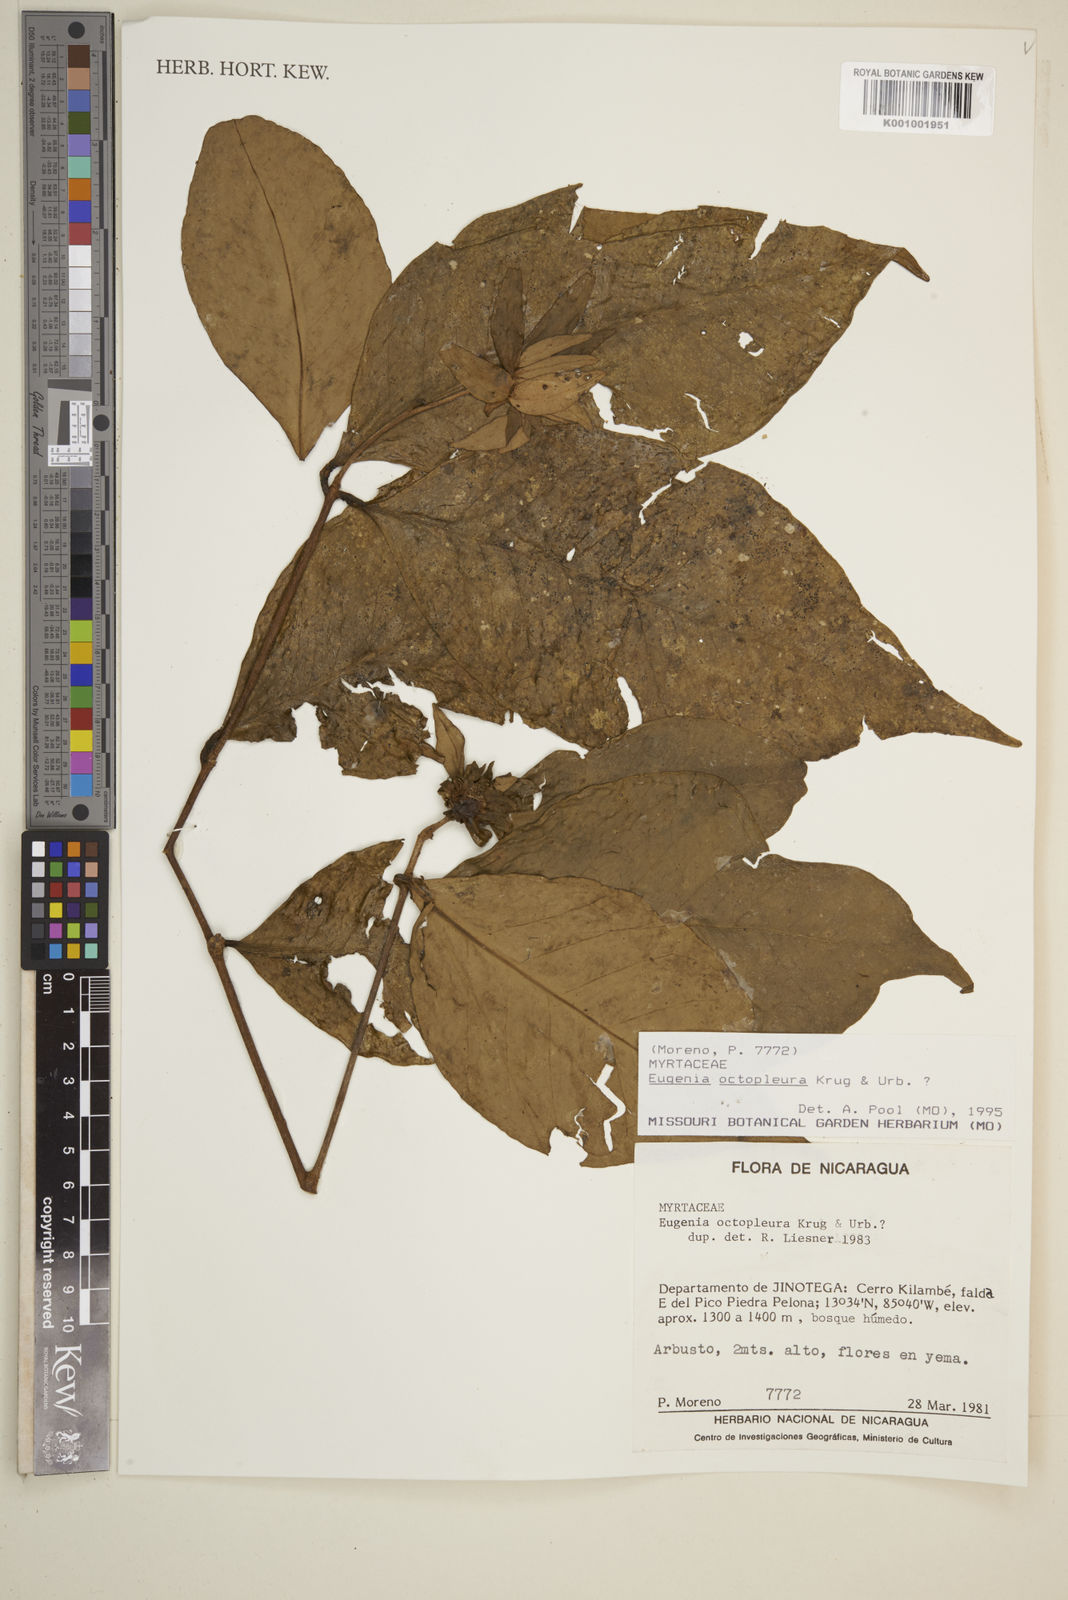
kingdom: Plantae
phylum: Tracheophyta
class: Magnoliopsida
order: Myrtales
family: Myrtaceae
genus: Eugenia
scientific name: Eugenia octopleura
